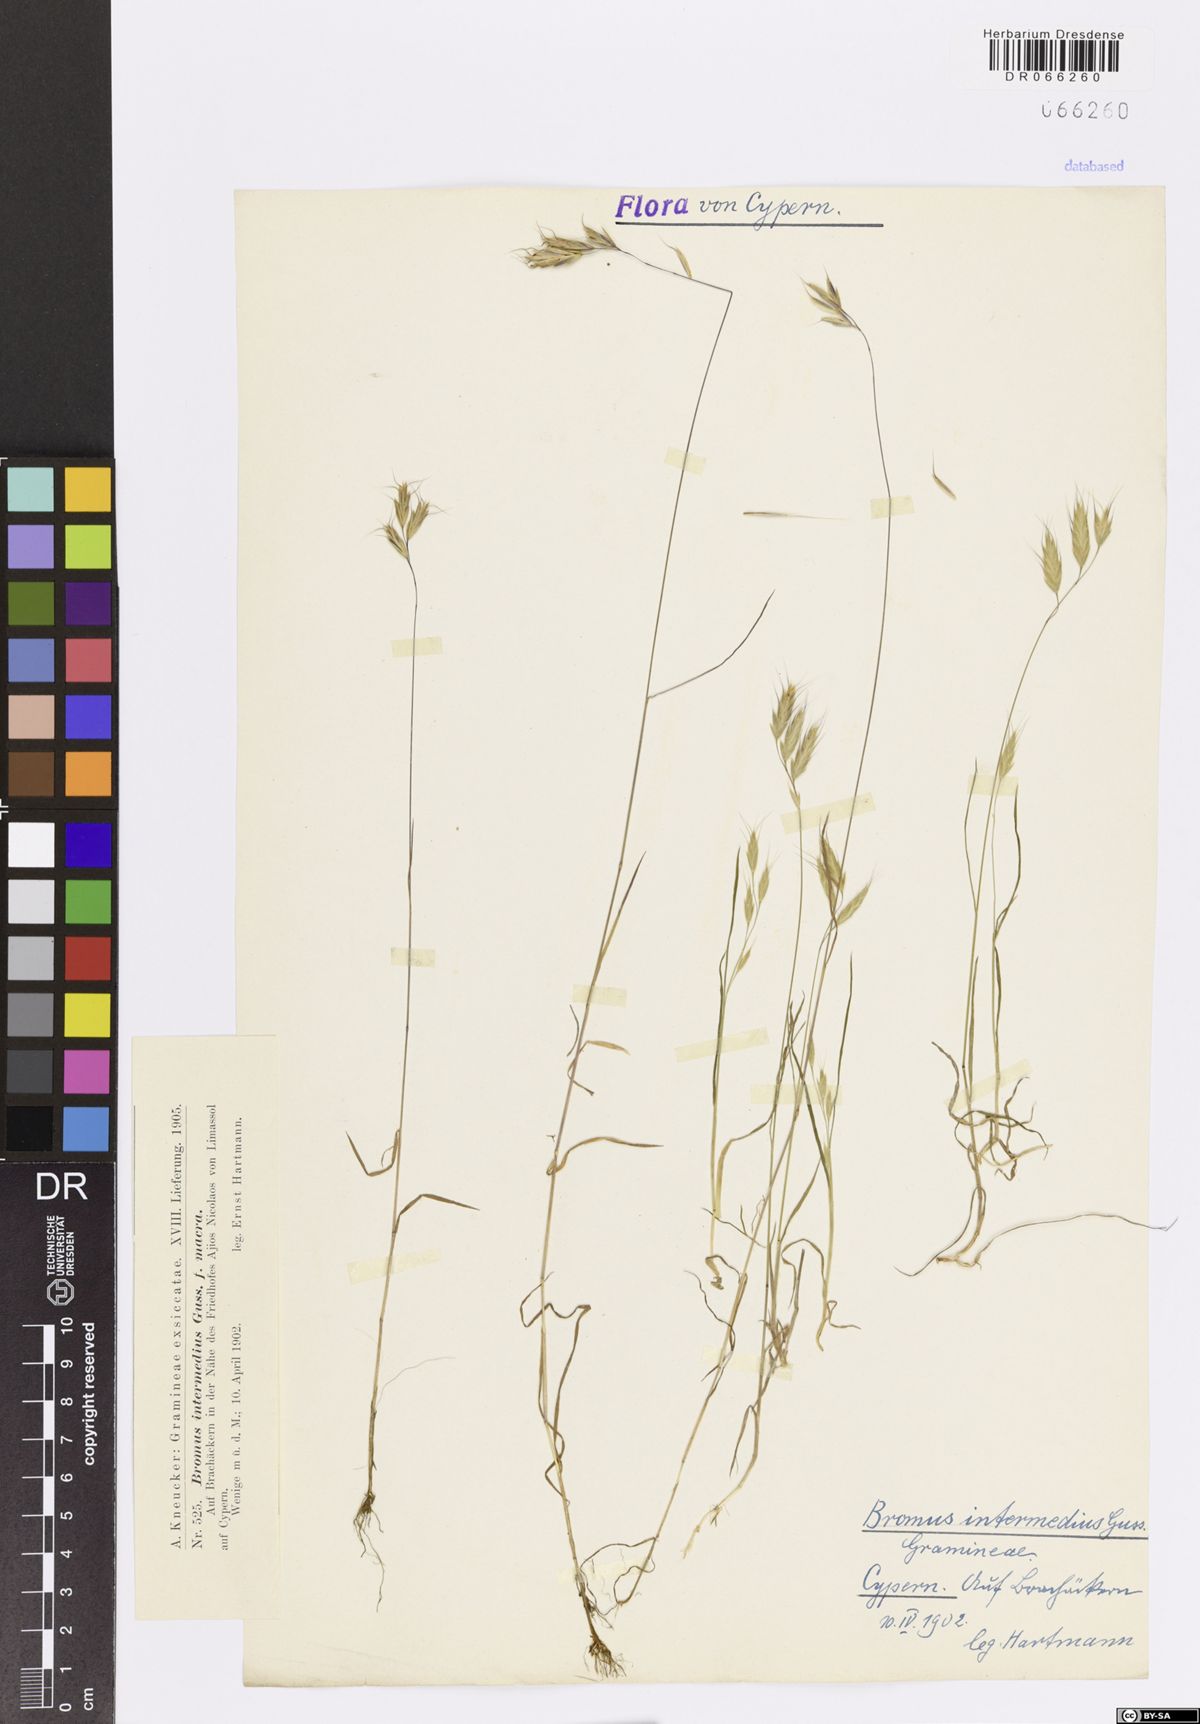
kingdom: Plantae
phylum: Tracheophyta
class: Liliopsida
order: Poales
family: Poaceae
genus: Bromus
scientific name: Bromus intermedius
